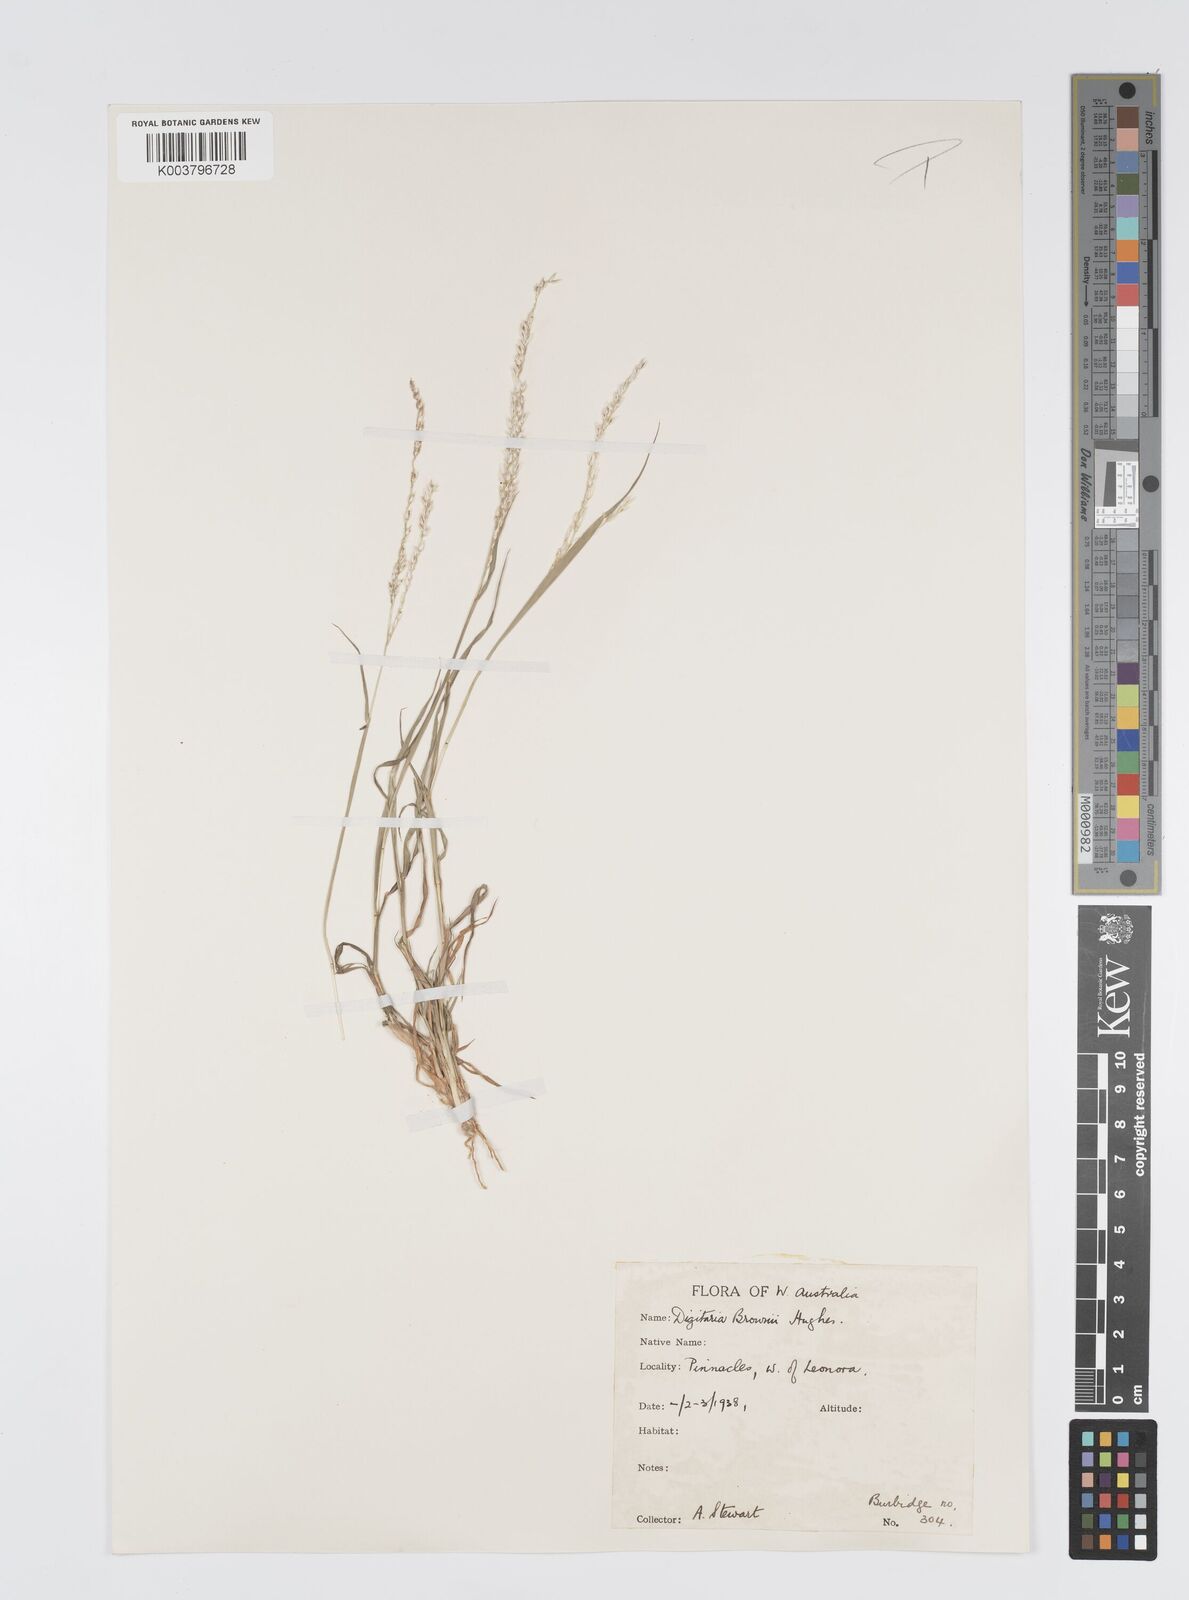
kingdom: Plantae
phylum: Tracheophyta
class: Liliopsida
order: Poales
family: Poaceae
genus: Digitaria
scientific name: Digitaria brownii
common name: Cotton grass
